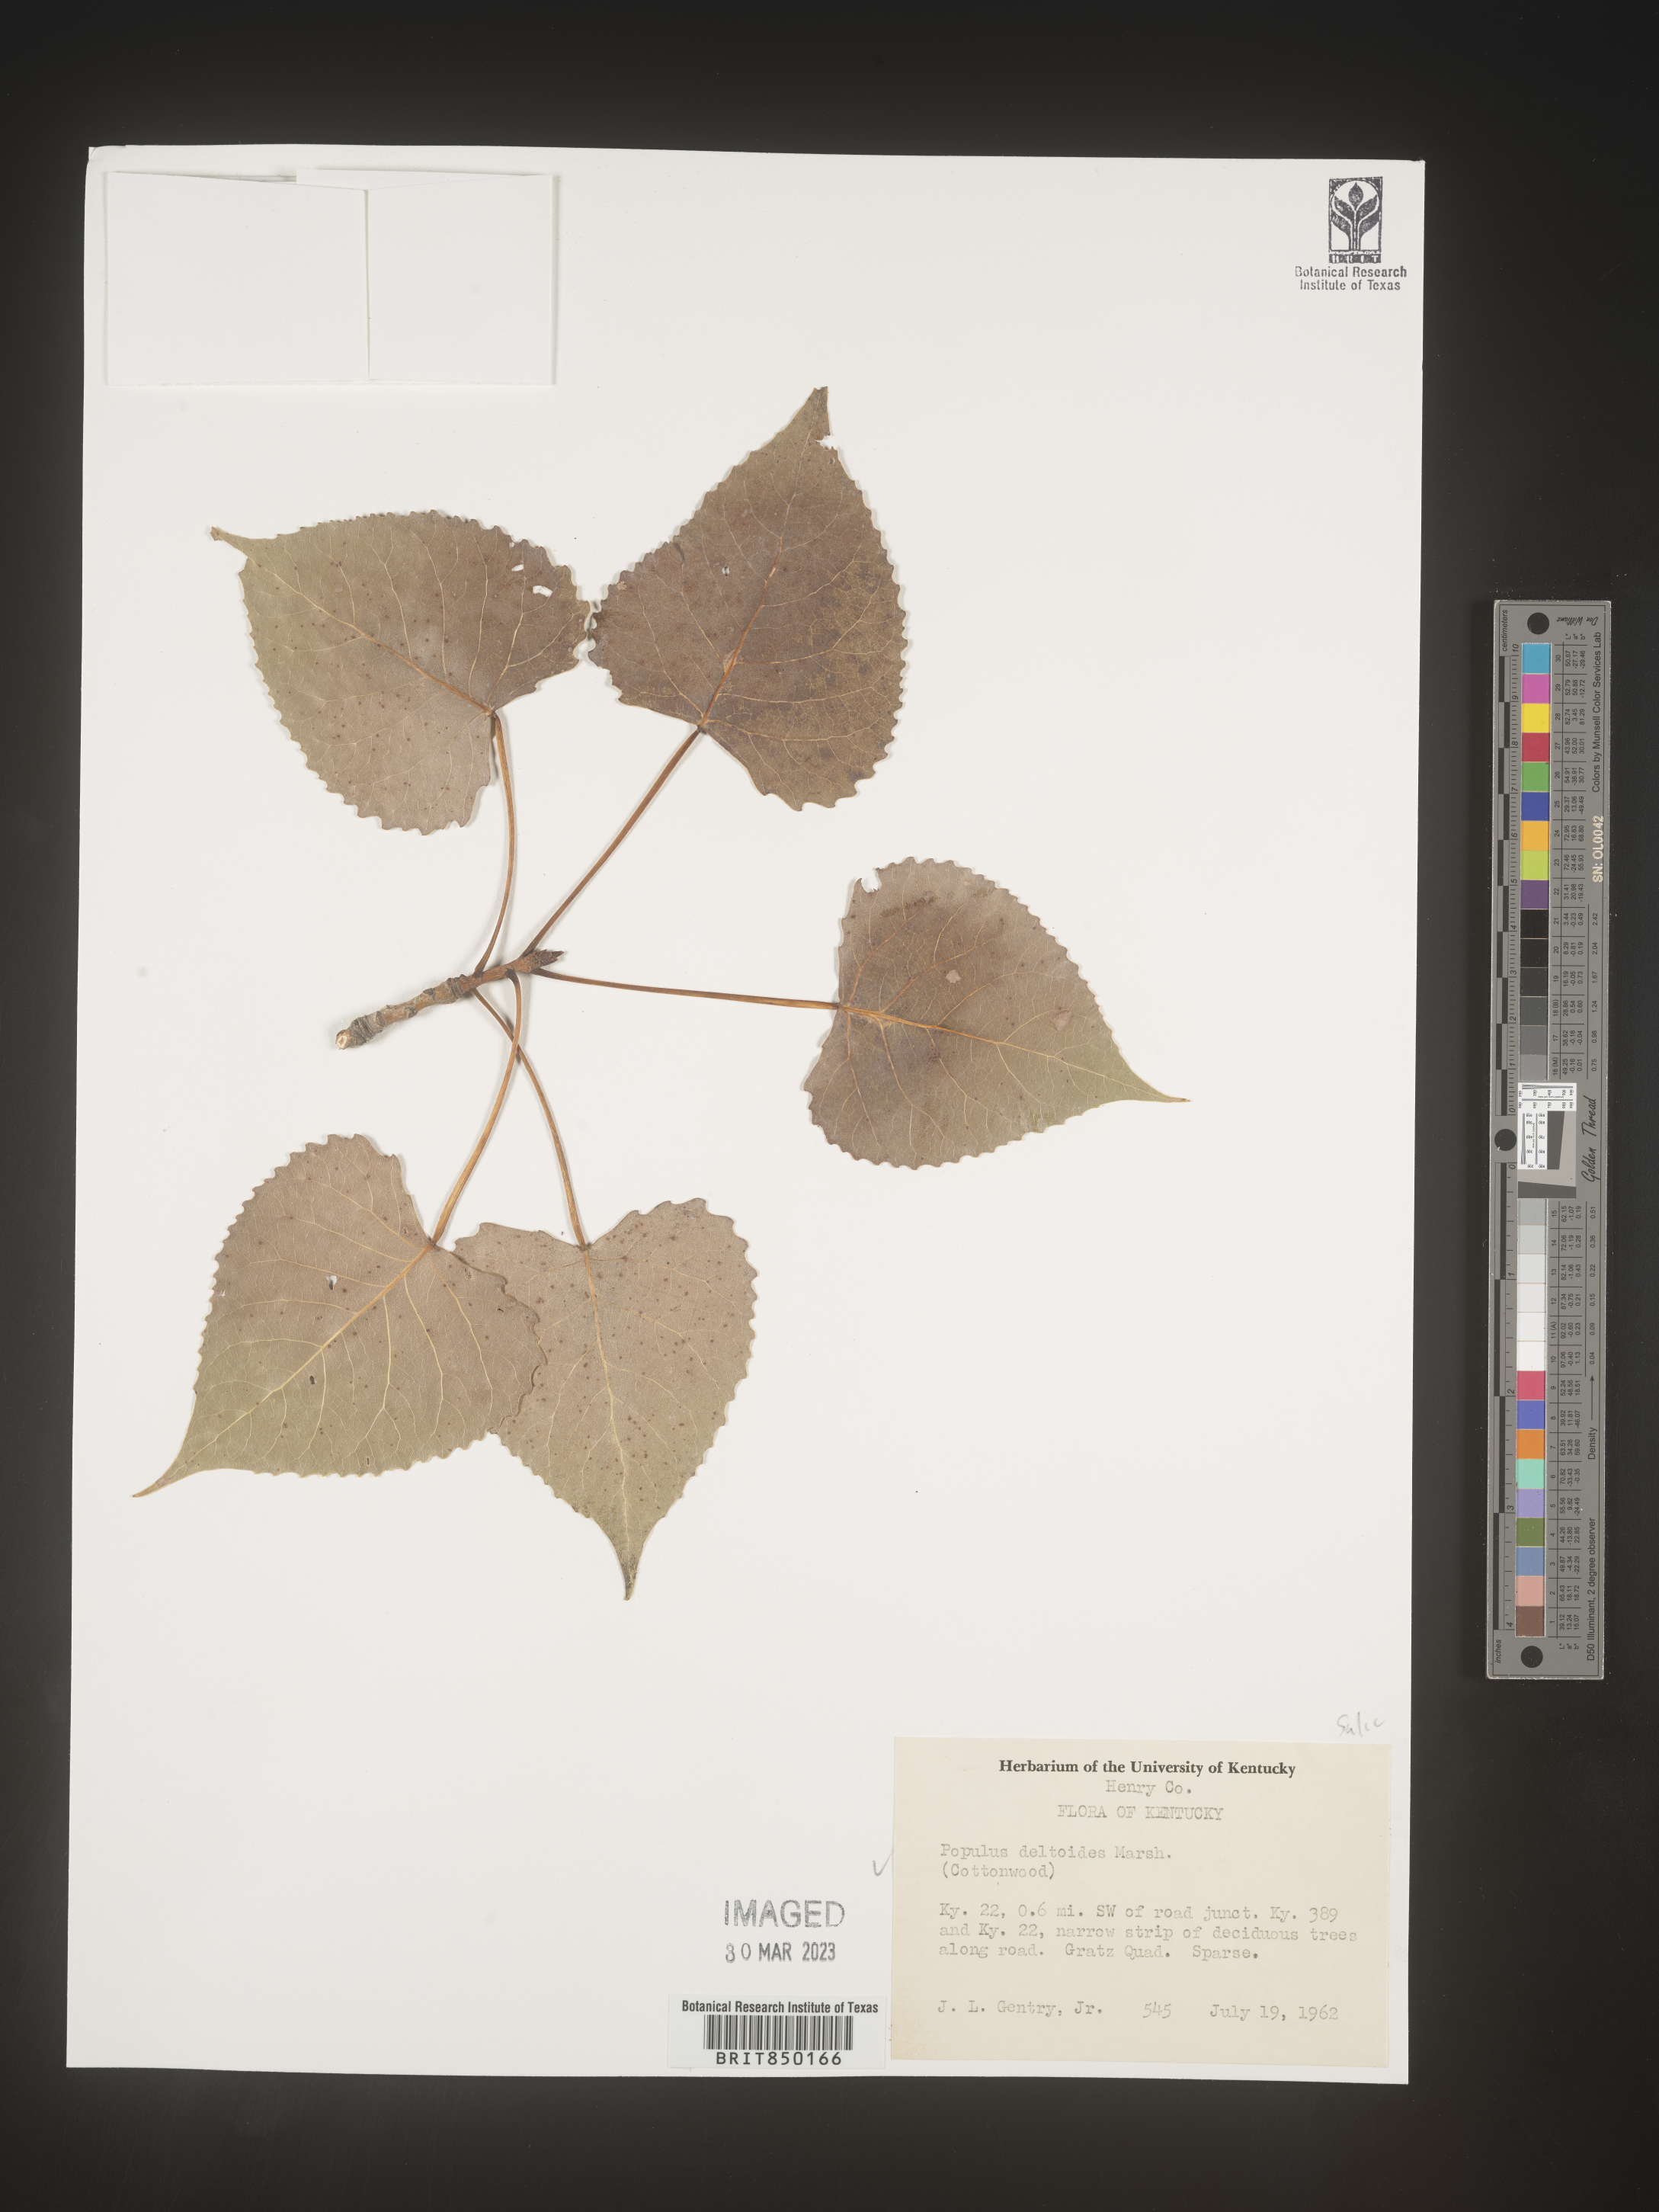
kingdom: Plantae
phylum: Tracheophyta
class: Magnoliopsida
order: Malpighiales
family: Salicaceae
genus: Populus
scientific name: Populus deltoides
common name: Eastern cottonwood
